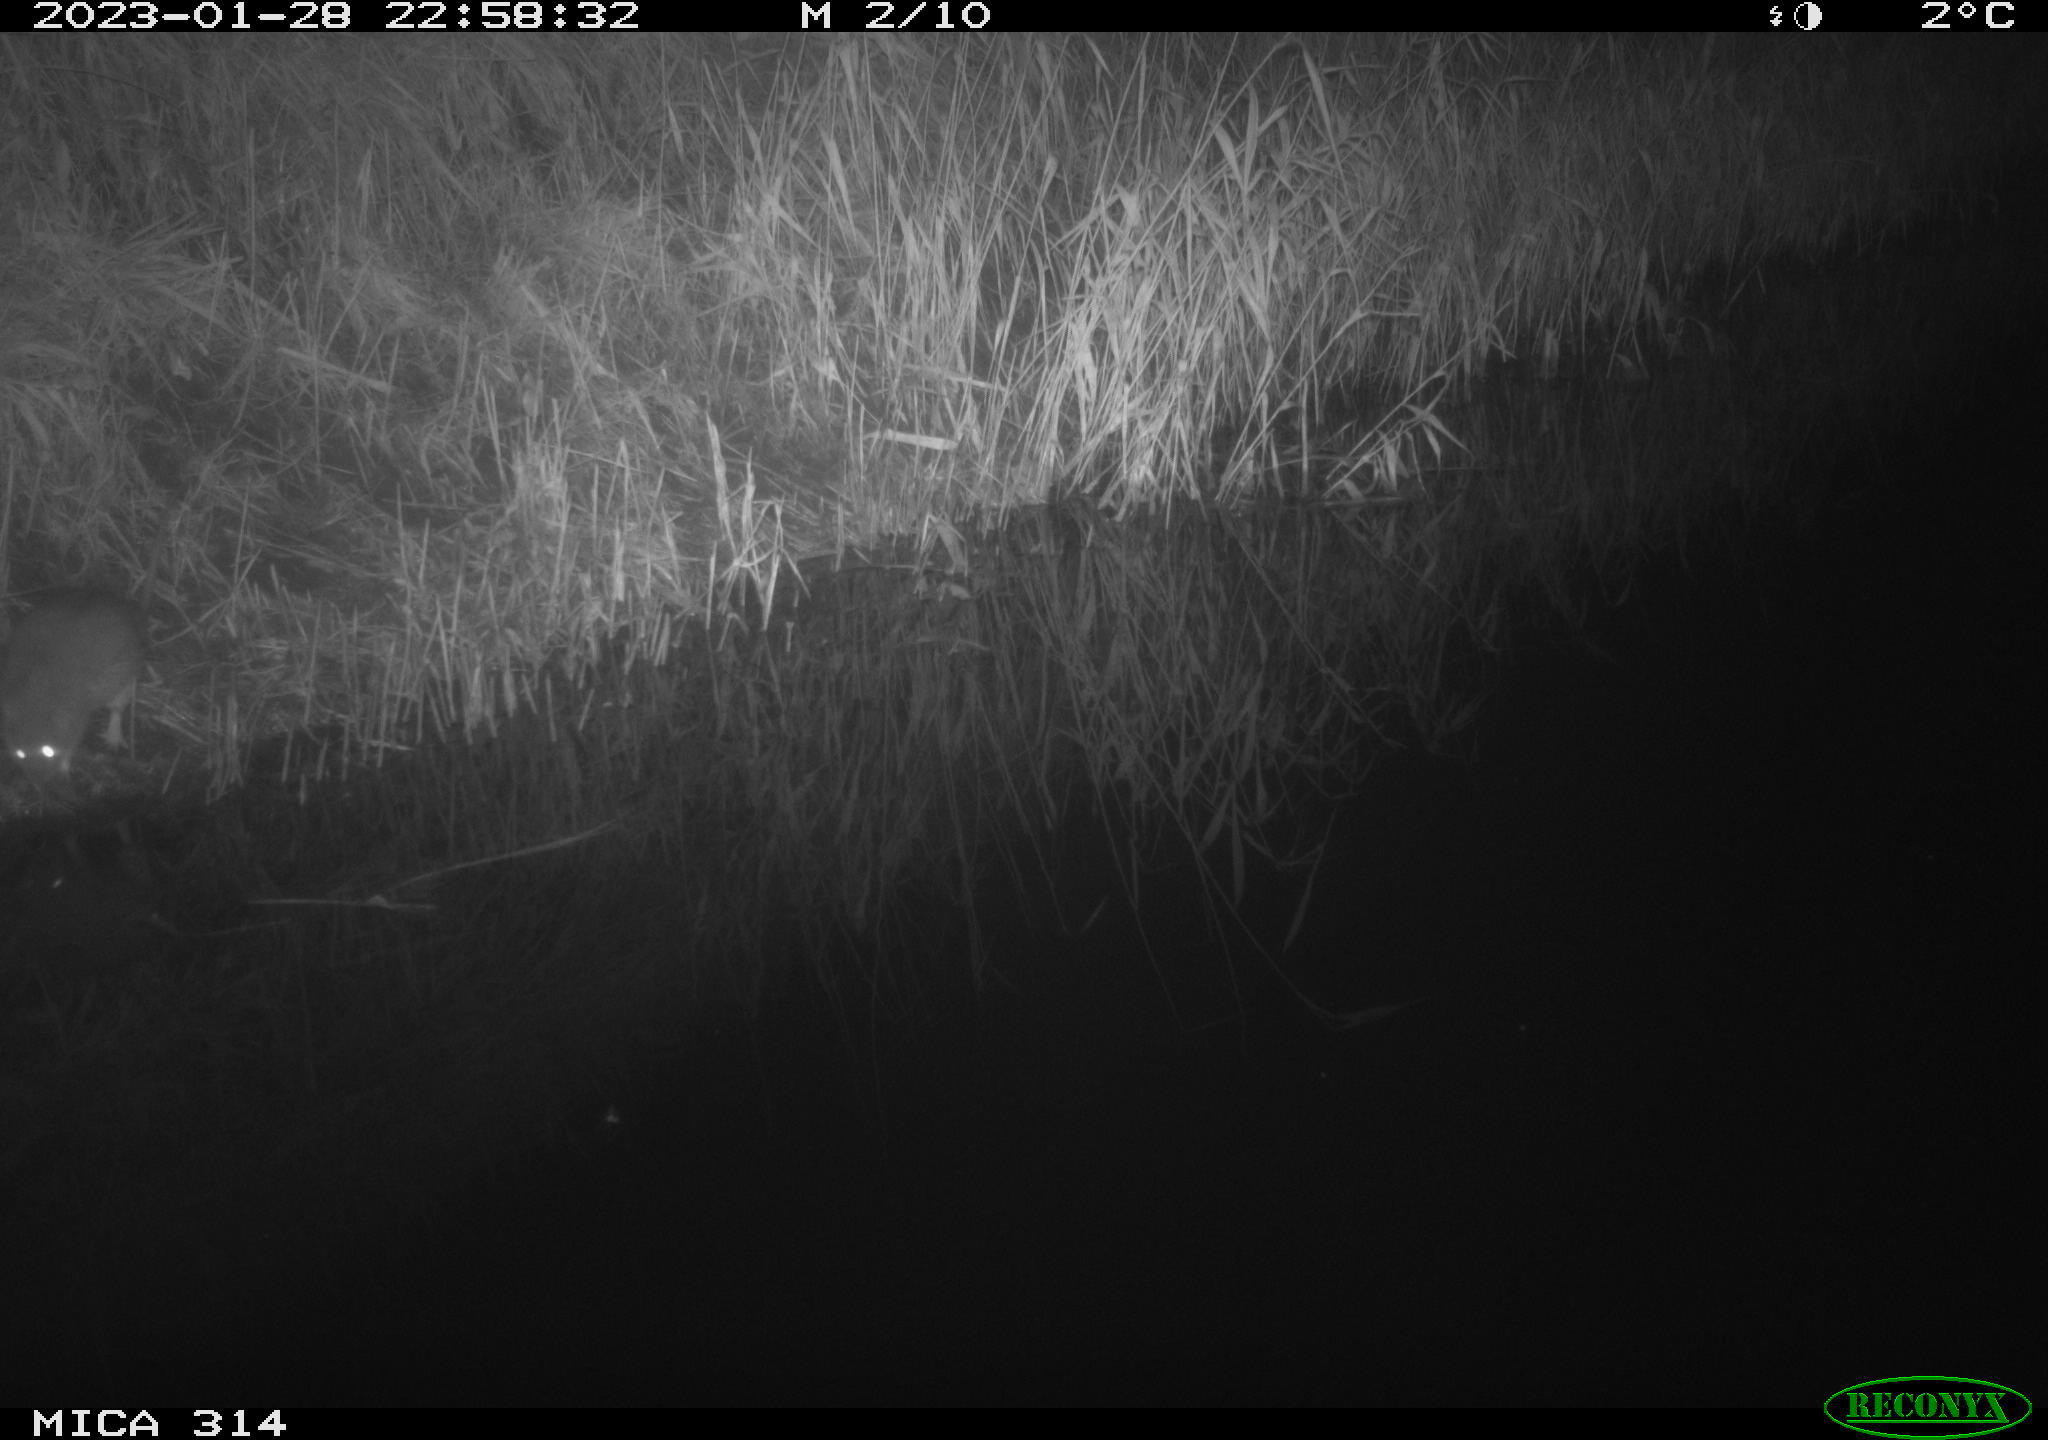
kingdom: Animalia
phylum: Chordata
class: Mammalia
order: Rodentia
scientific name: Rodentia
